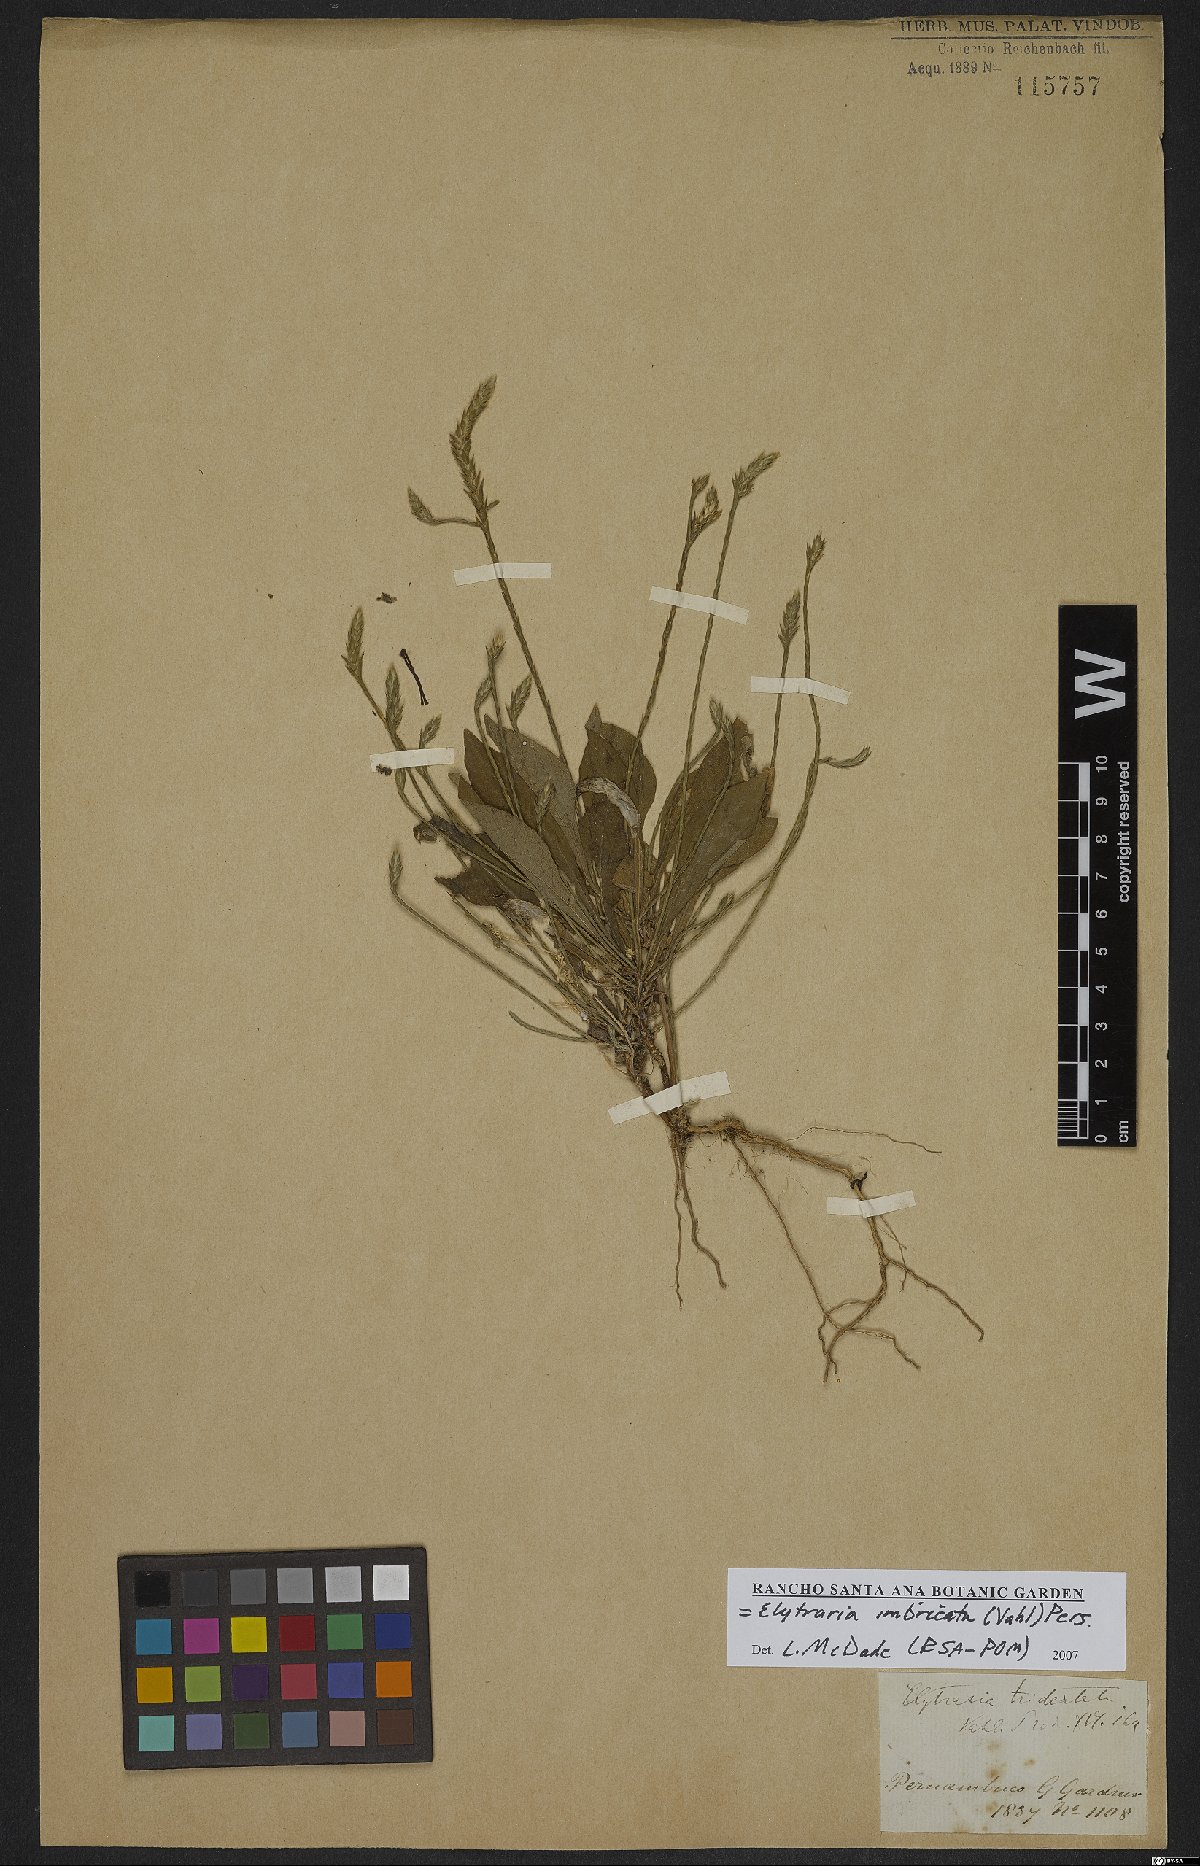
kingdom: Plantae
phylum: Tracheophyta
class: Magnoliopsida
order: Lamiales
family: Acanthaceae
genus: Elytraria
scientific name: Elytraria imbricata
